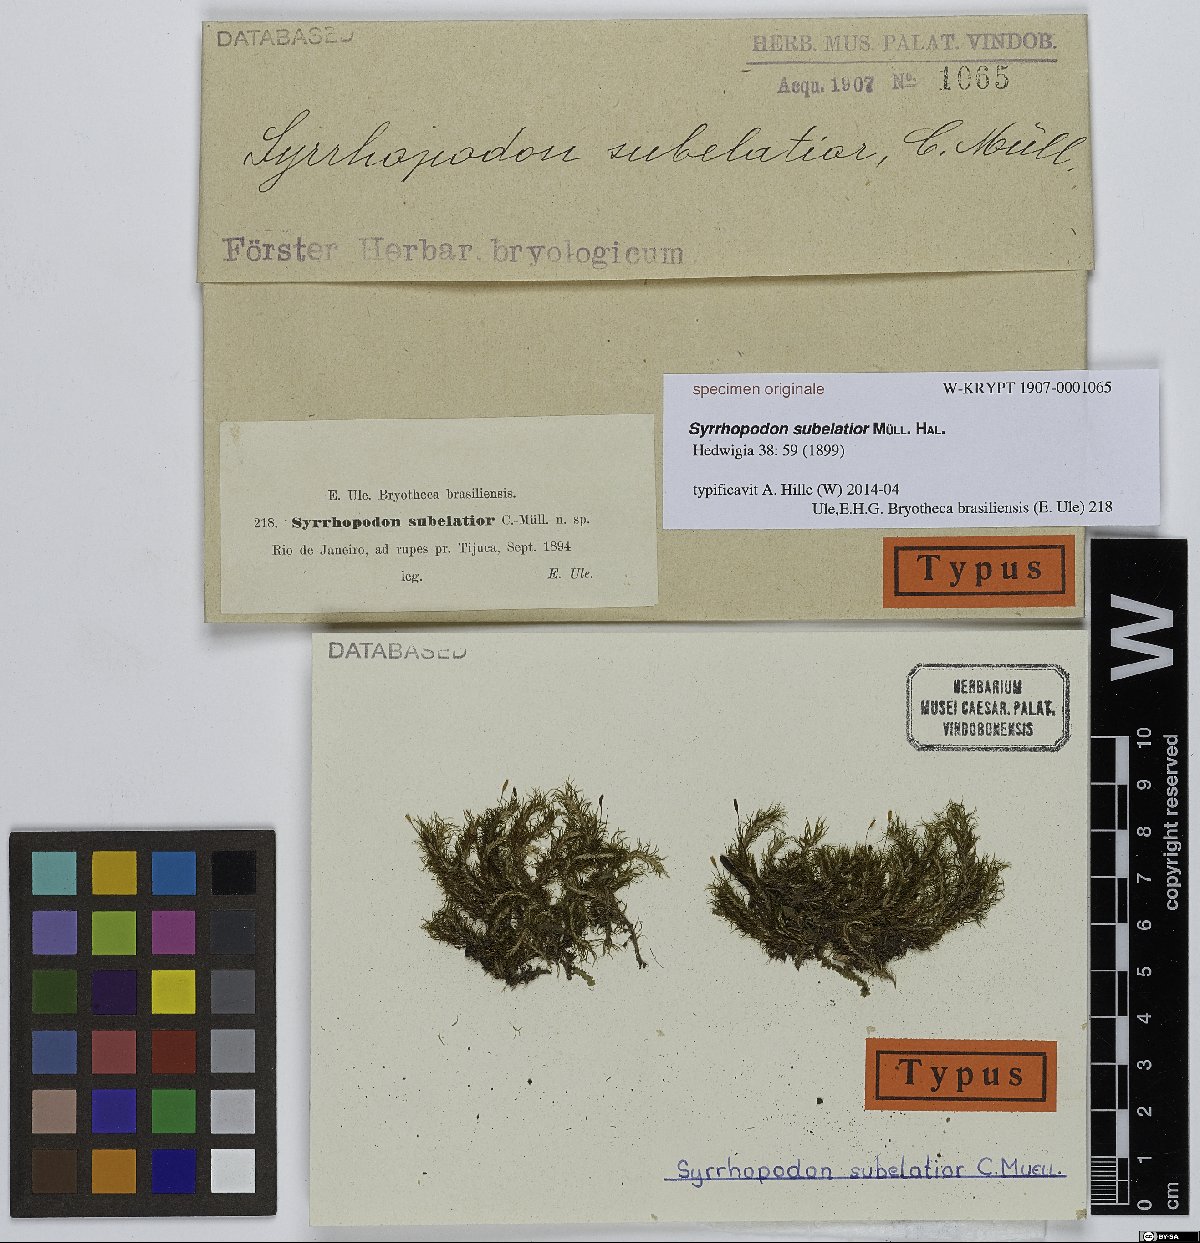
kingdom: Plantae
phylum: Bryophyta
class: Bryopsida
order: Dicranales
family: Calymperaceae
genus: Syrrhopodon
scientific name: Syrrhopodon
